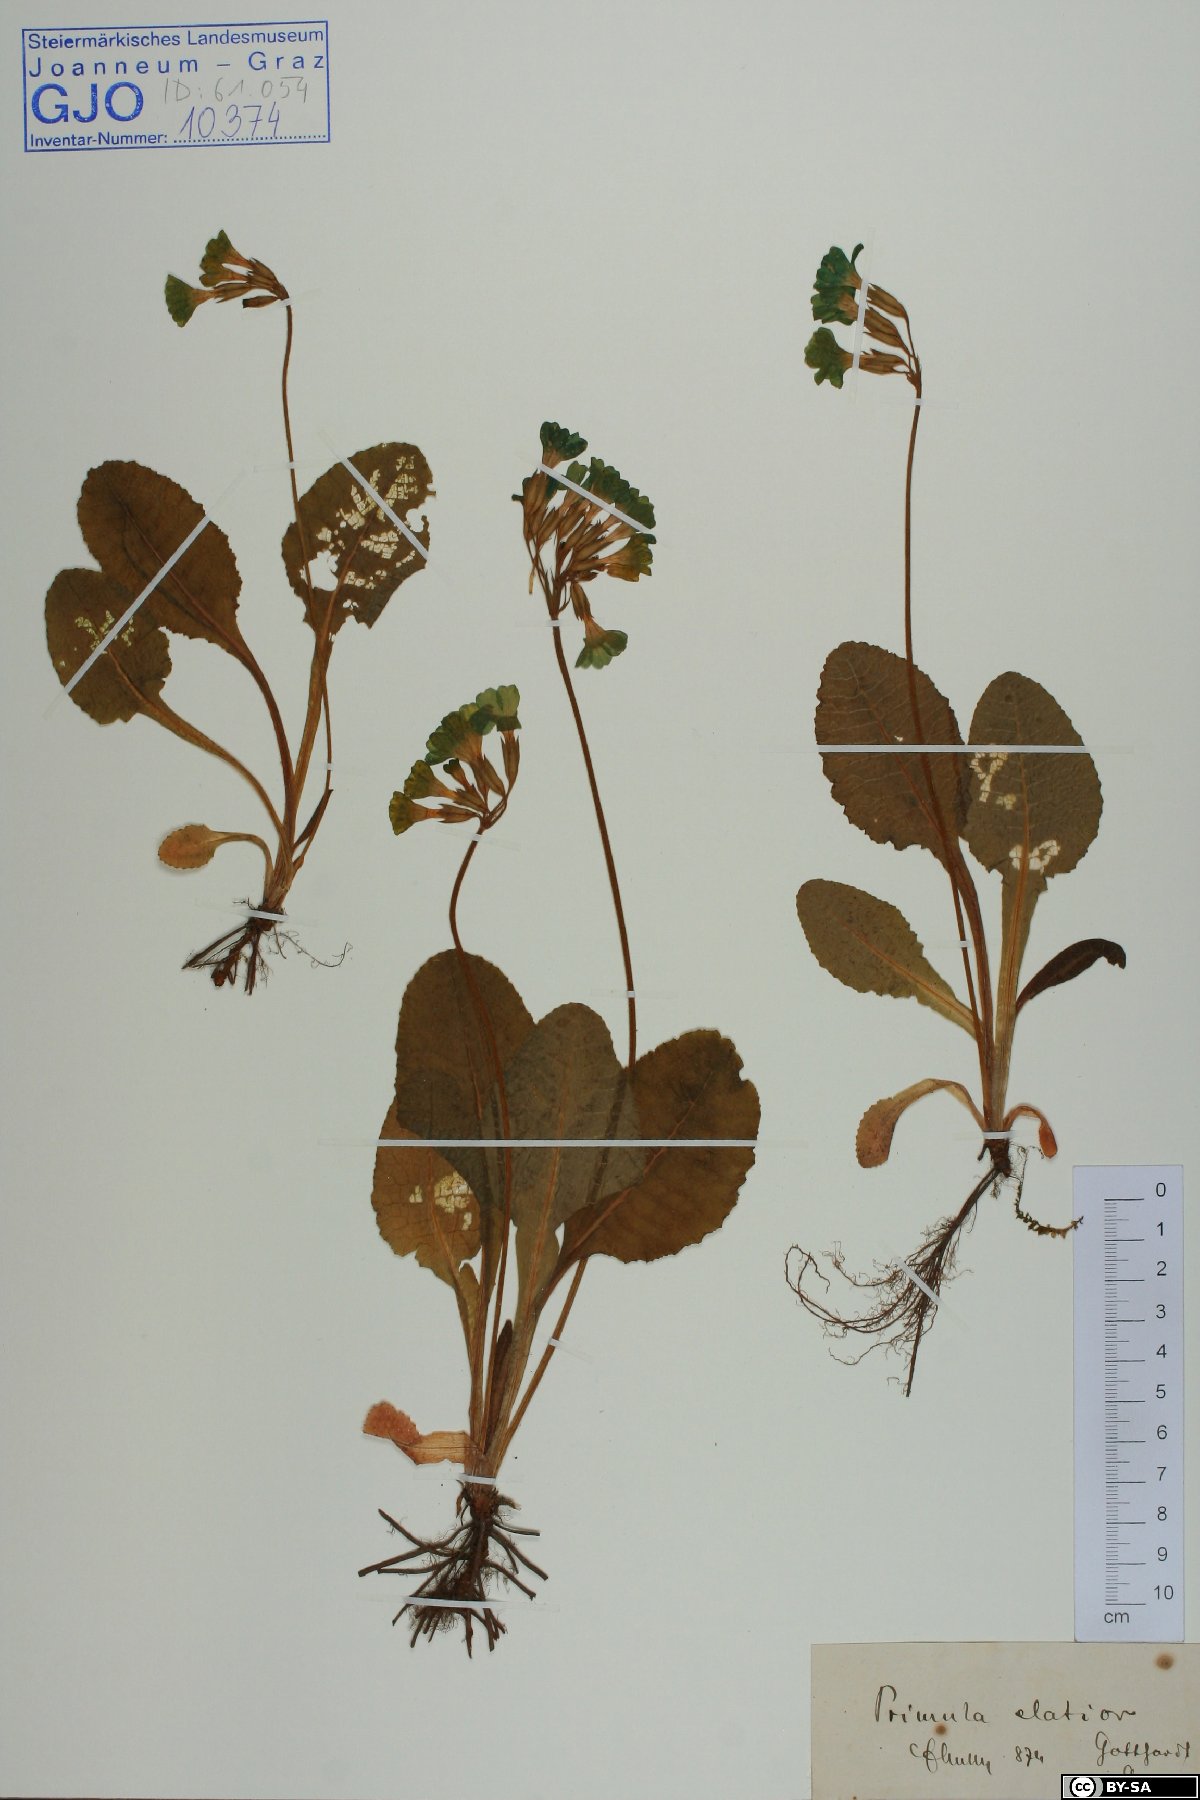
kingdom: Plantae
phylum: Tracheophyta
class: Magnoliopsida
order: Ericales
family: Primulaceae
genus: Primula
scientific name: Primula elatior
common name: Oxlip
